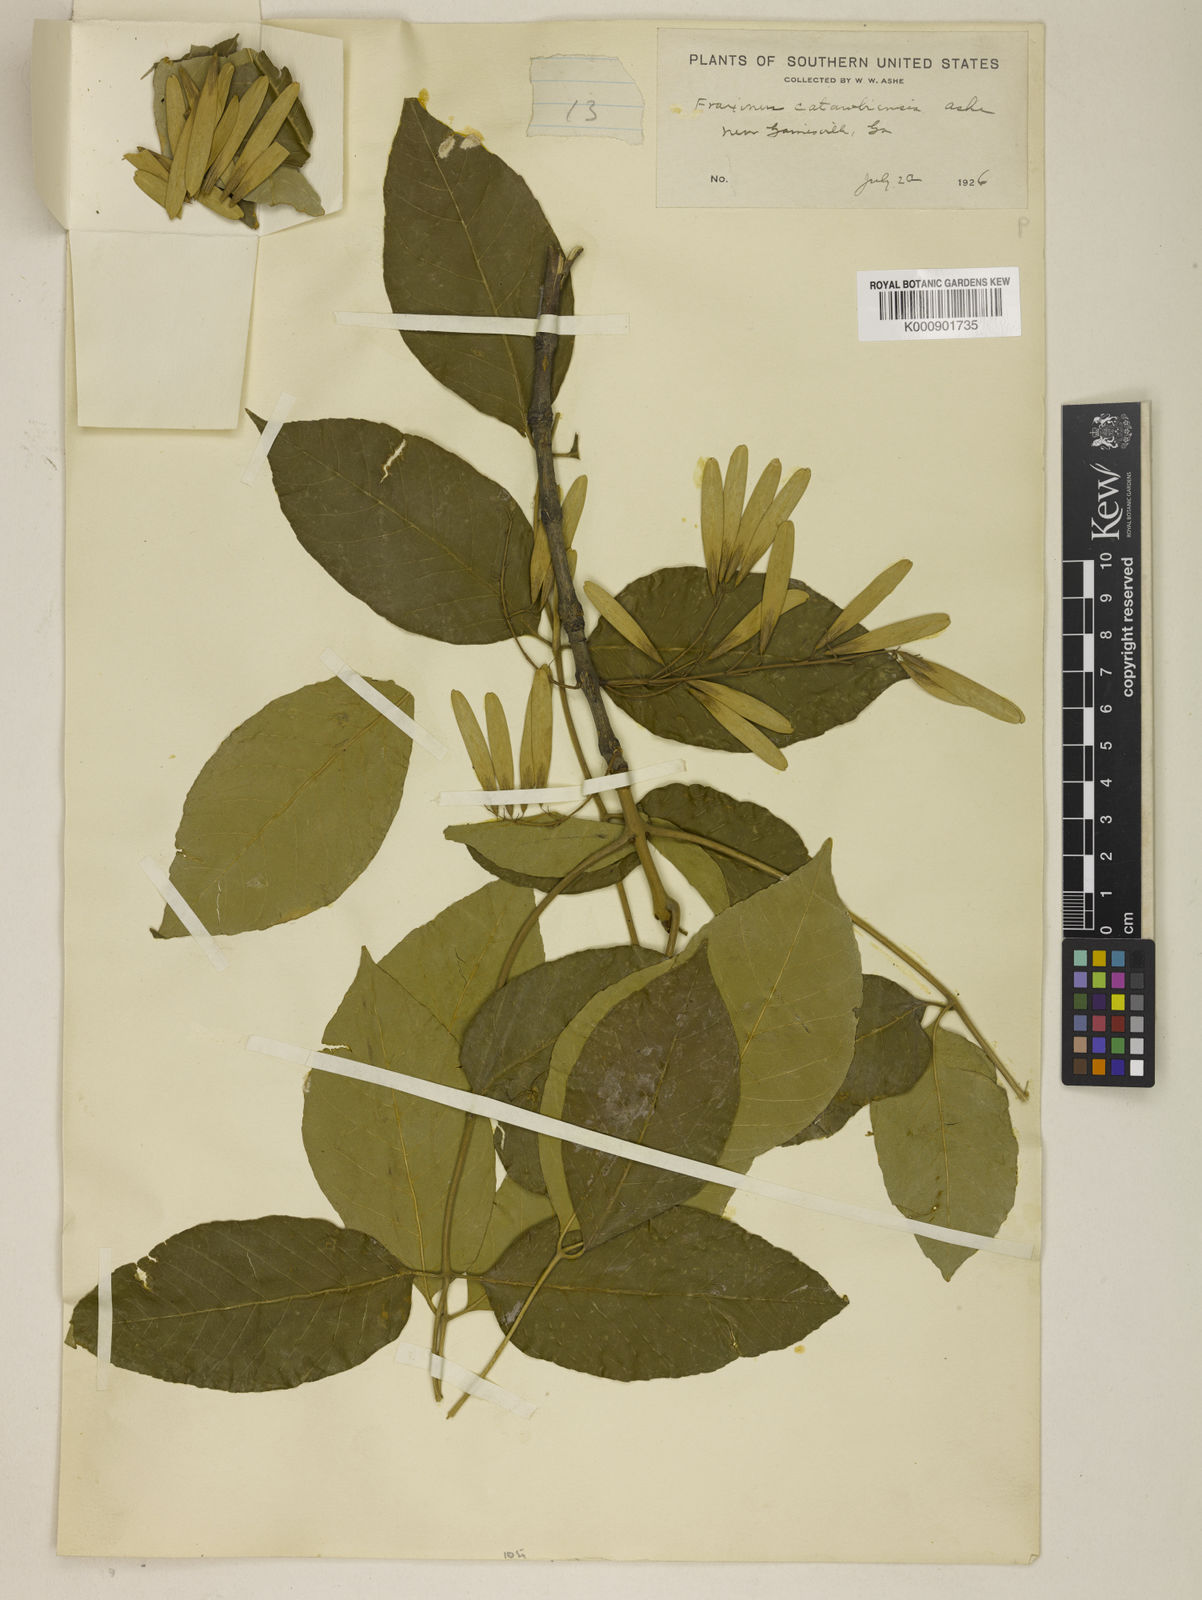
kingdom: Plantae
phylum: Tracheophyta
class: Magnoliopsida
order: Lamiales
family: Oleaceae
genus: Fraxinus
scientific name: Fraxinus americana
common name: White ash
